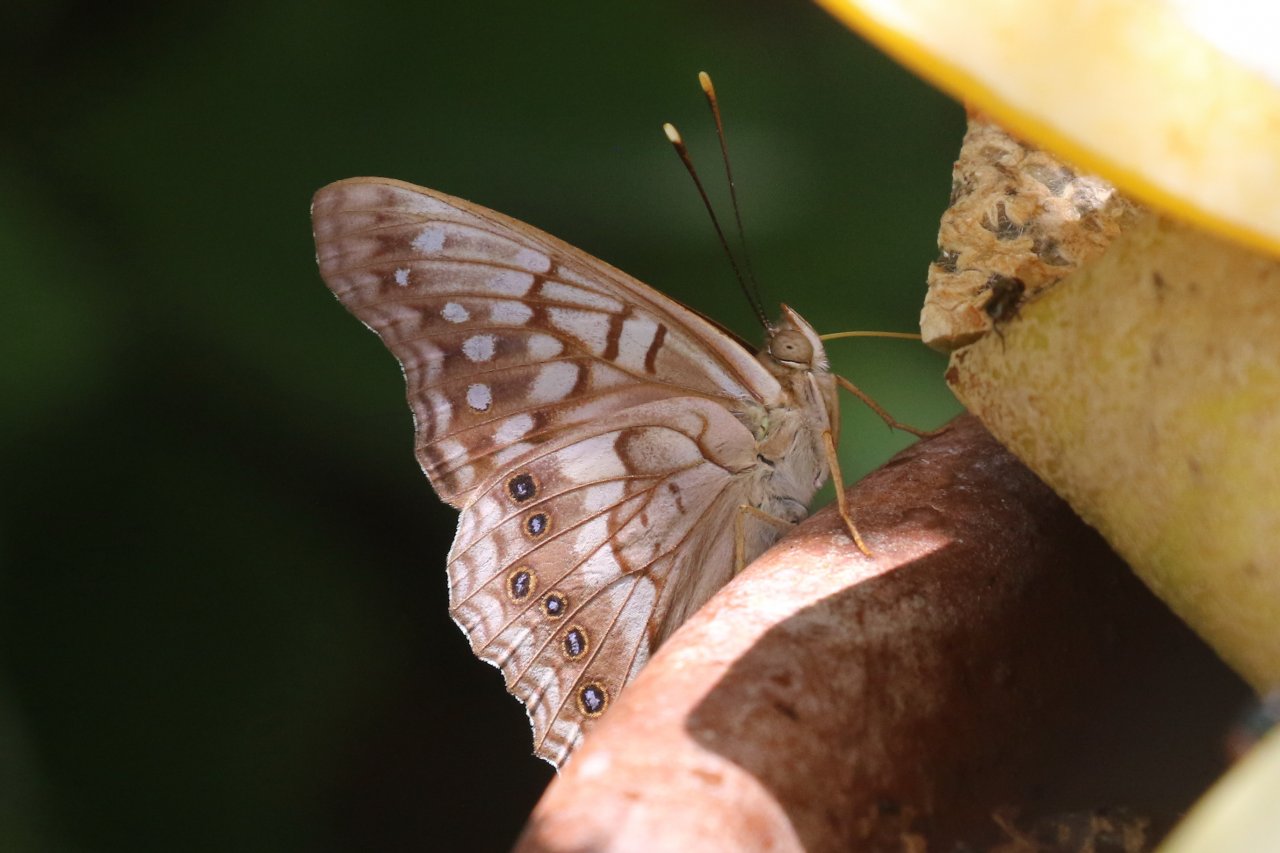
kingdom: Animalia
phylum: Arthropoda
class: Insecta
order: Lepidoptera
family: Nymphalidae
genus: Asterocampa
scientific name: Asterocampa clyton
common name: Tawny Emperor
